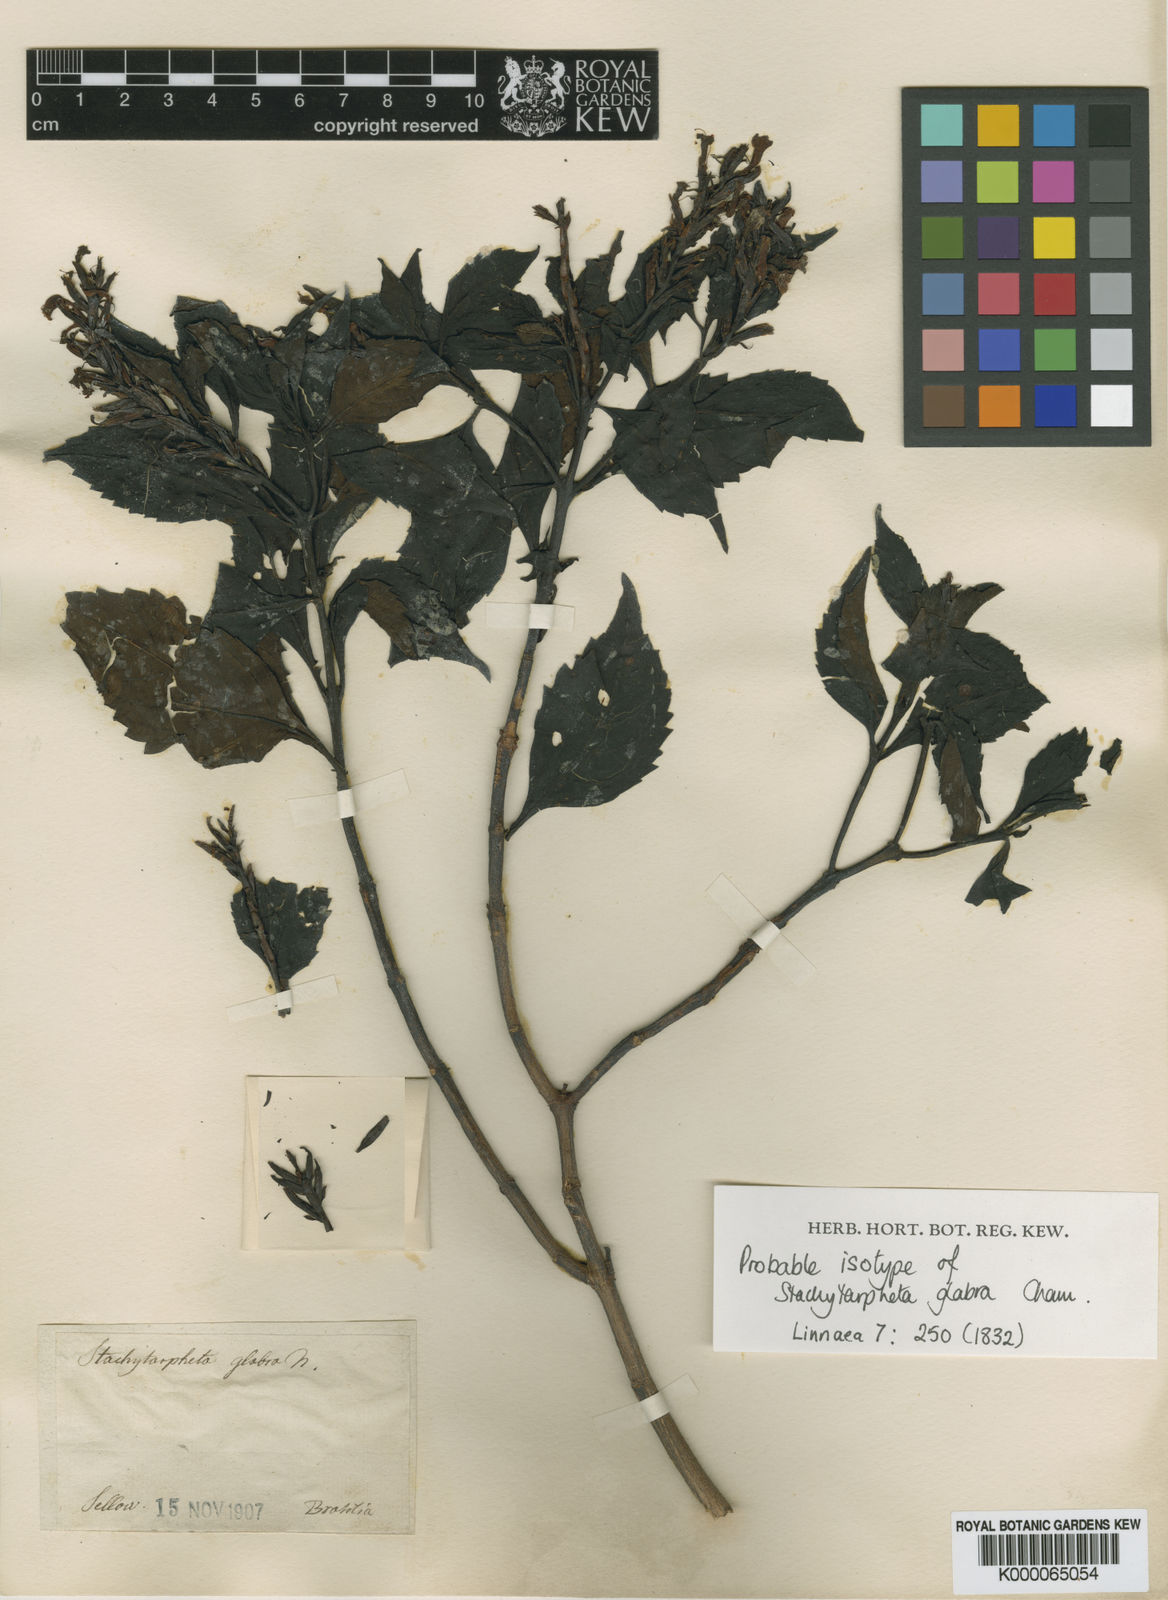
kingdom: Plantae
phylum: Tracheophyta
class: Magnoliopsida
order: Lamiales
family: Verbenaceae
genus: Stachytarpheta
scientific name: Stachytarpheta glabra
